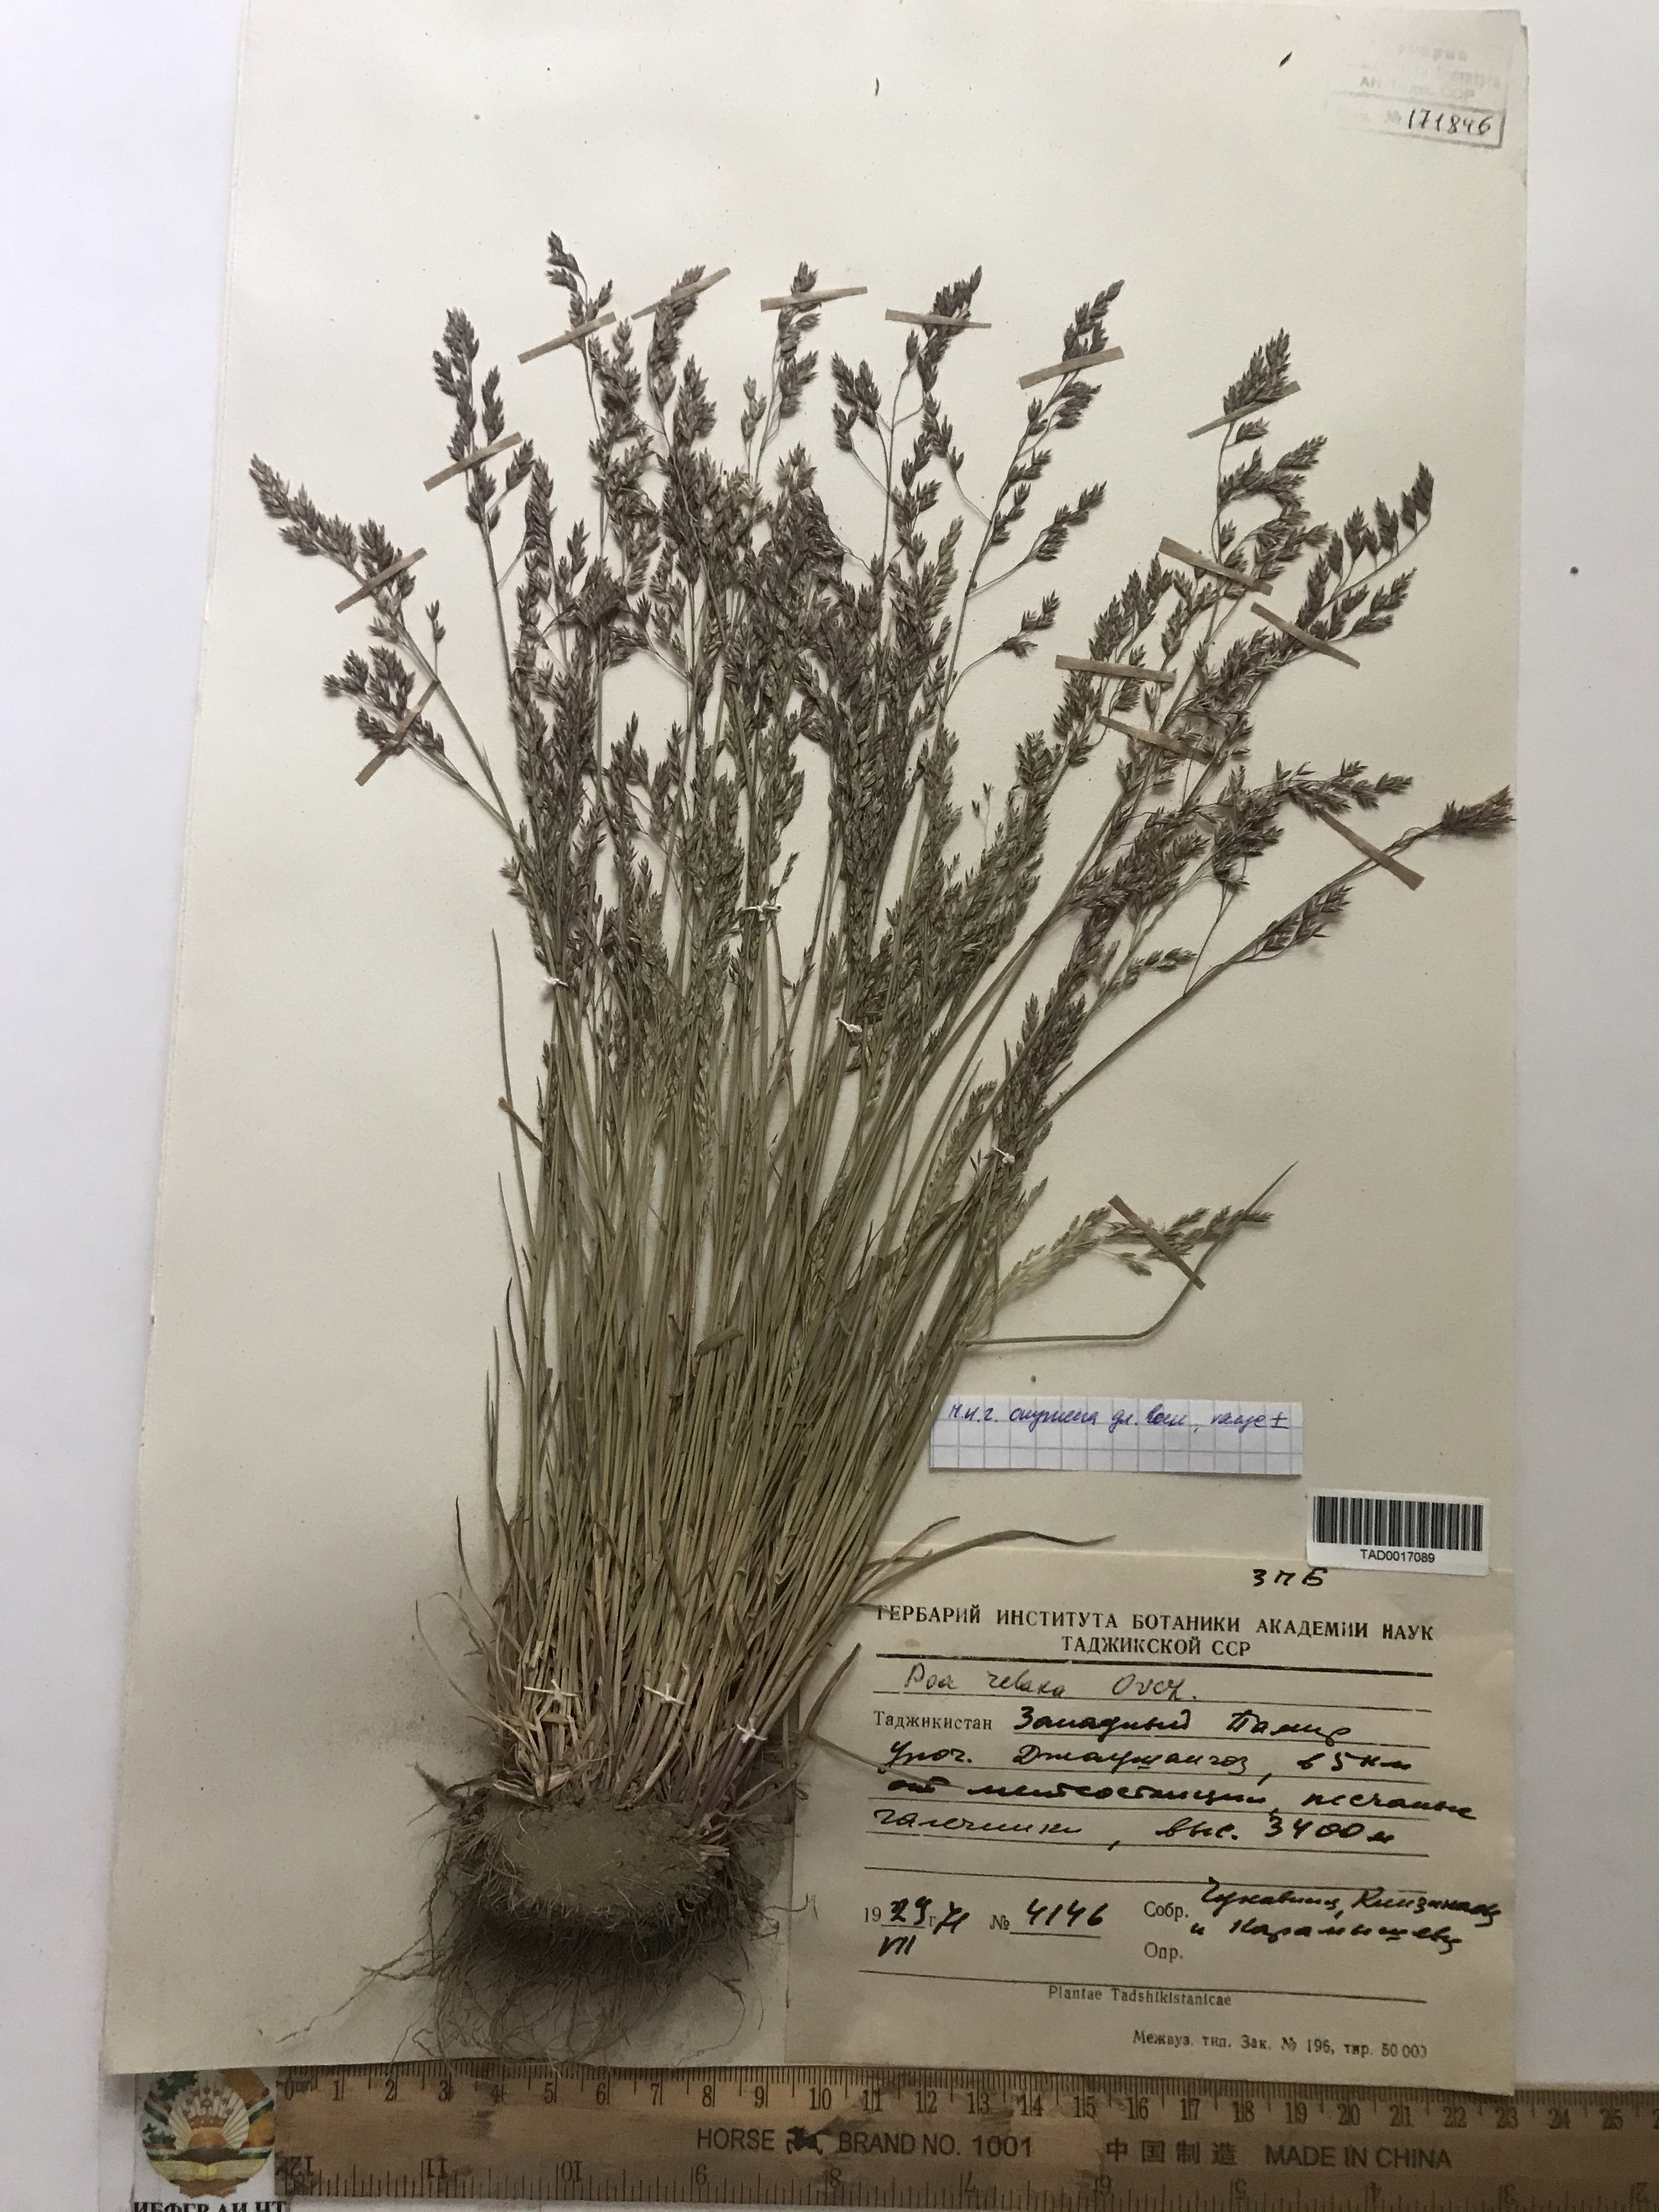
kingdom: Plantae
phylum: Tracheophyta
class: Liliopsida
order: Poales
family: Poaceae
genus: Poa
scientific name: Poa versicolor
